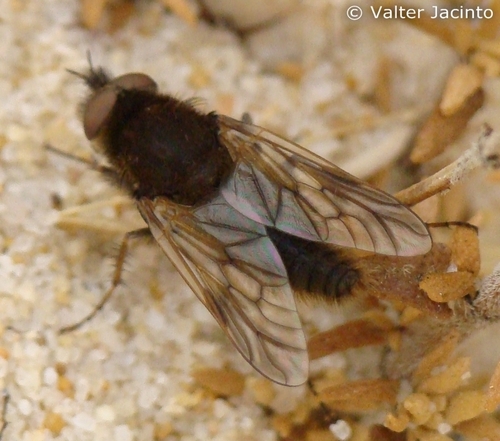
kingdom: Animalia
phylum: Arthropoda
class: Insecta
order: Diptera
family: Therevidae
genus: Thereva
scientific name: Thereva hispanica
